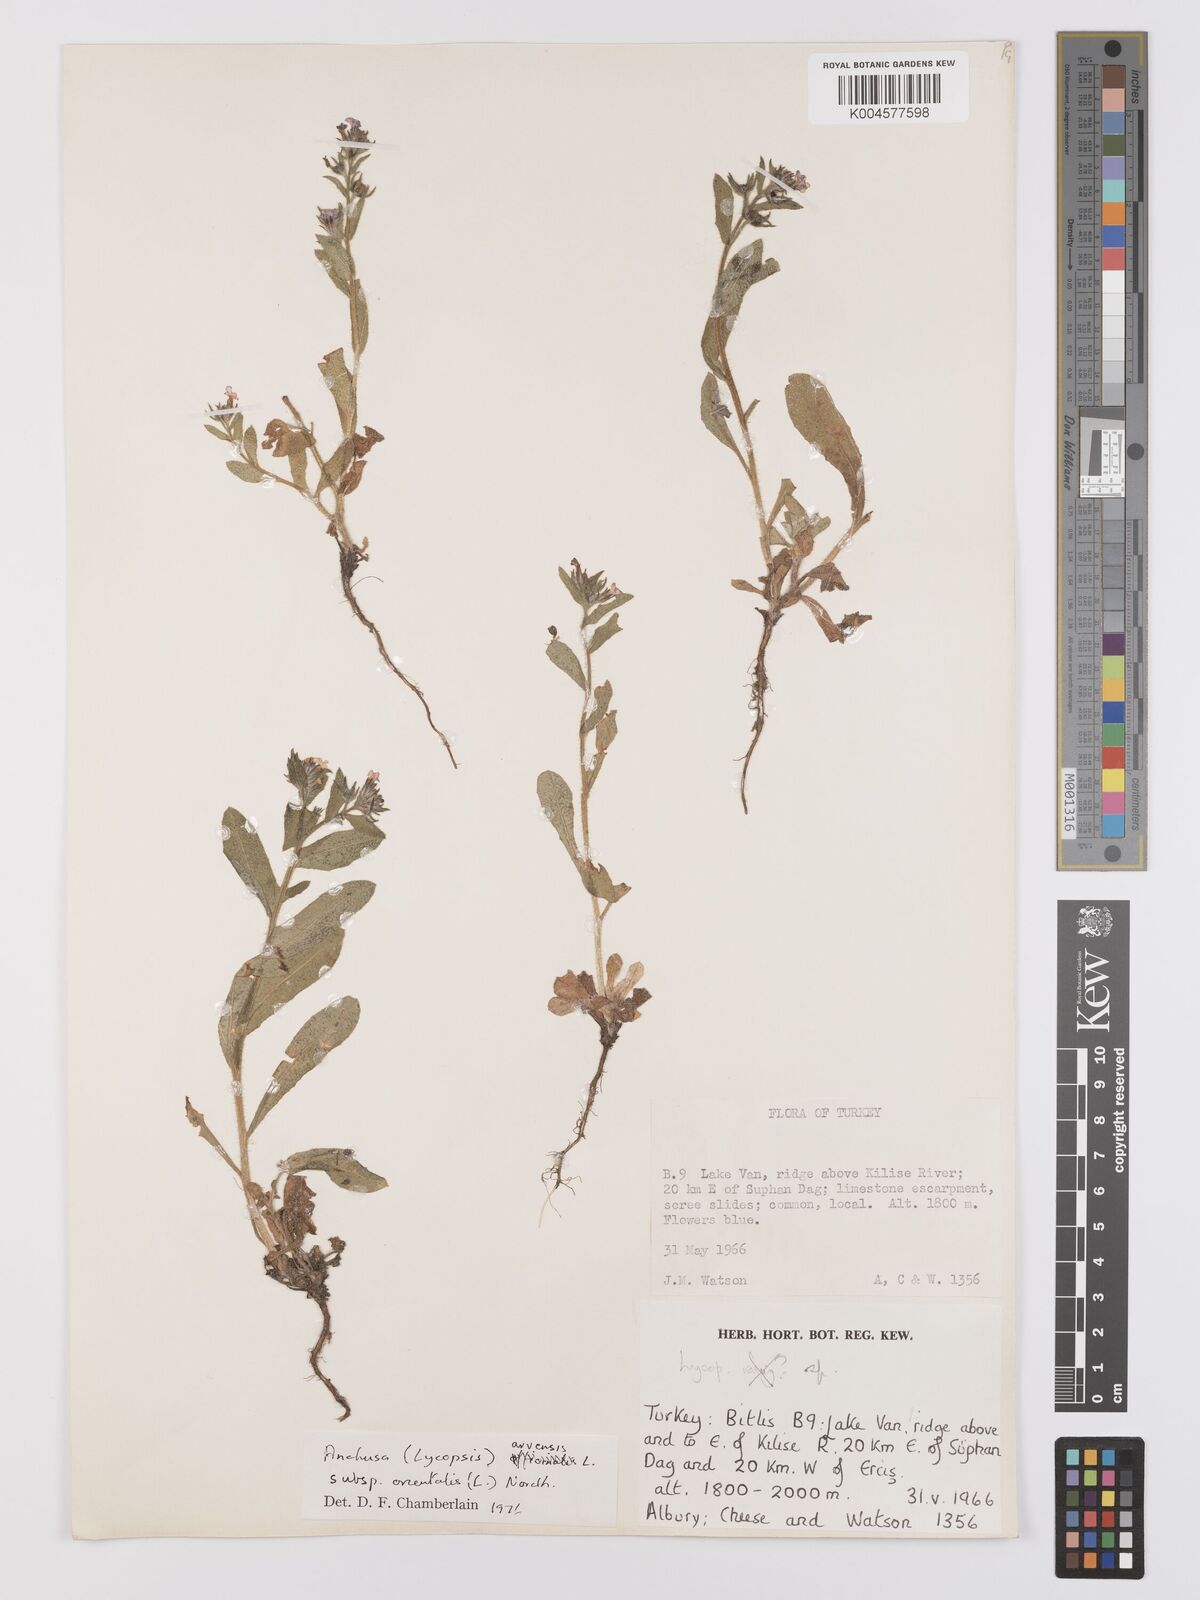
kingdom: Plantae
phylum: Tracheophyta
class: Magnoliopsida
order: Boraginales
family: Boraginaceae
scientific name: Boraginaceae
